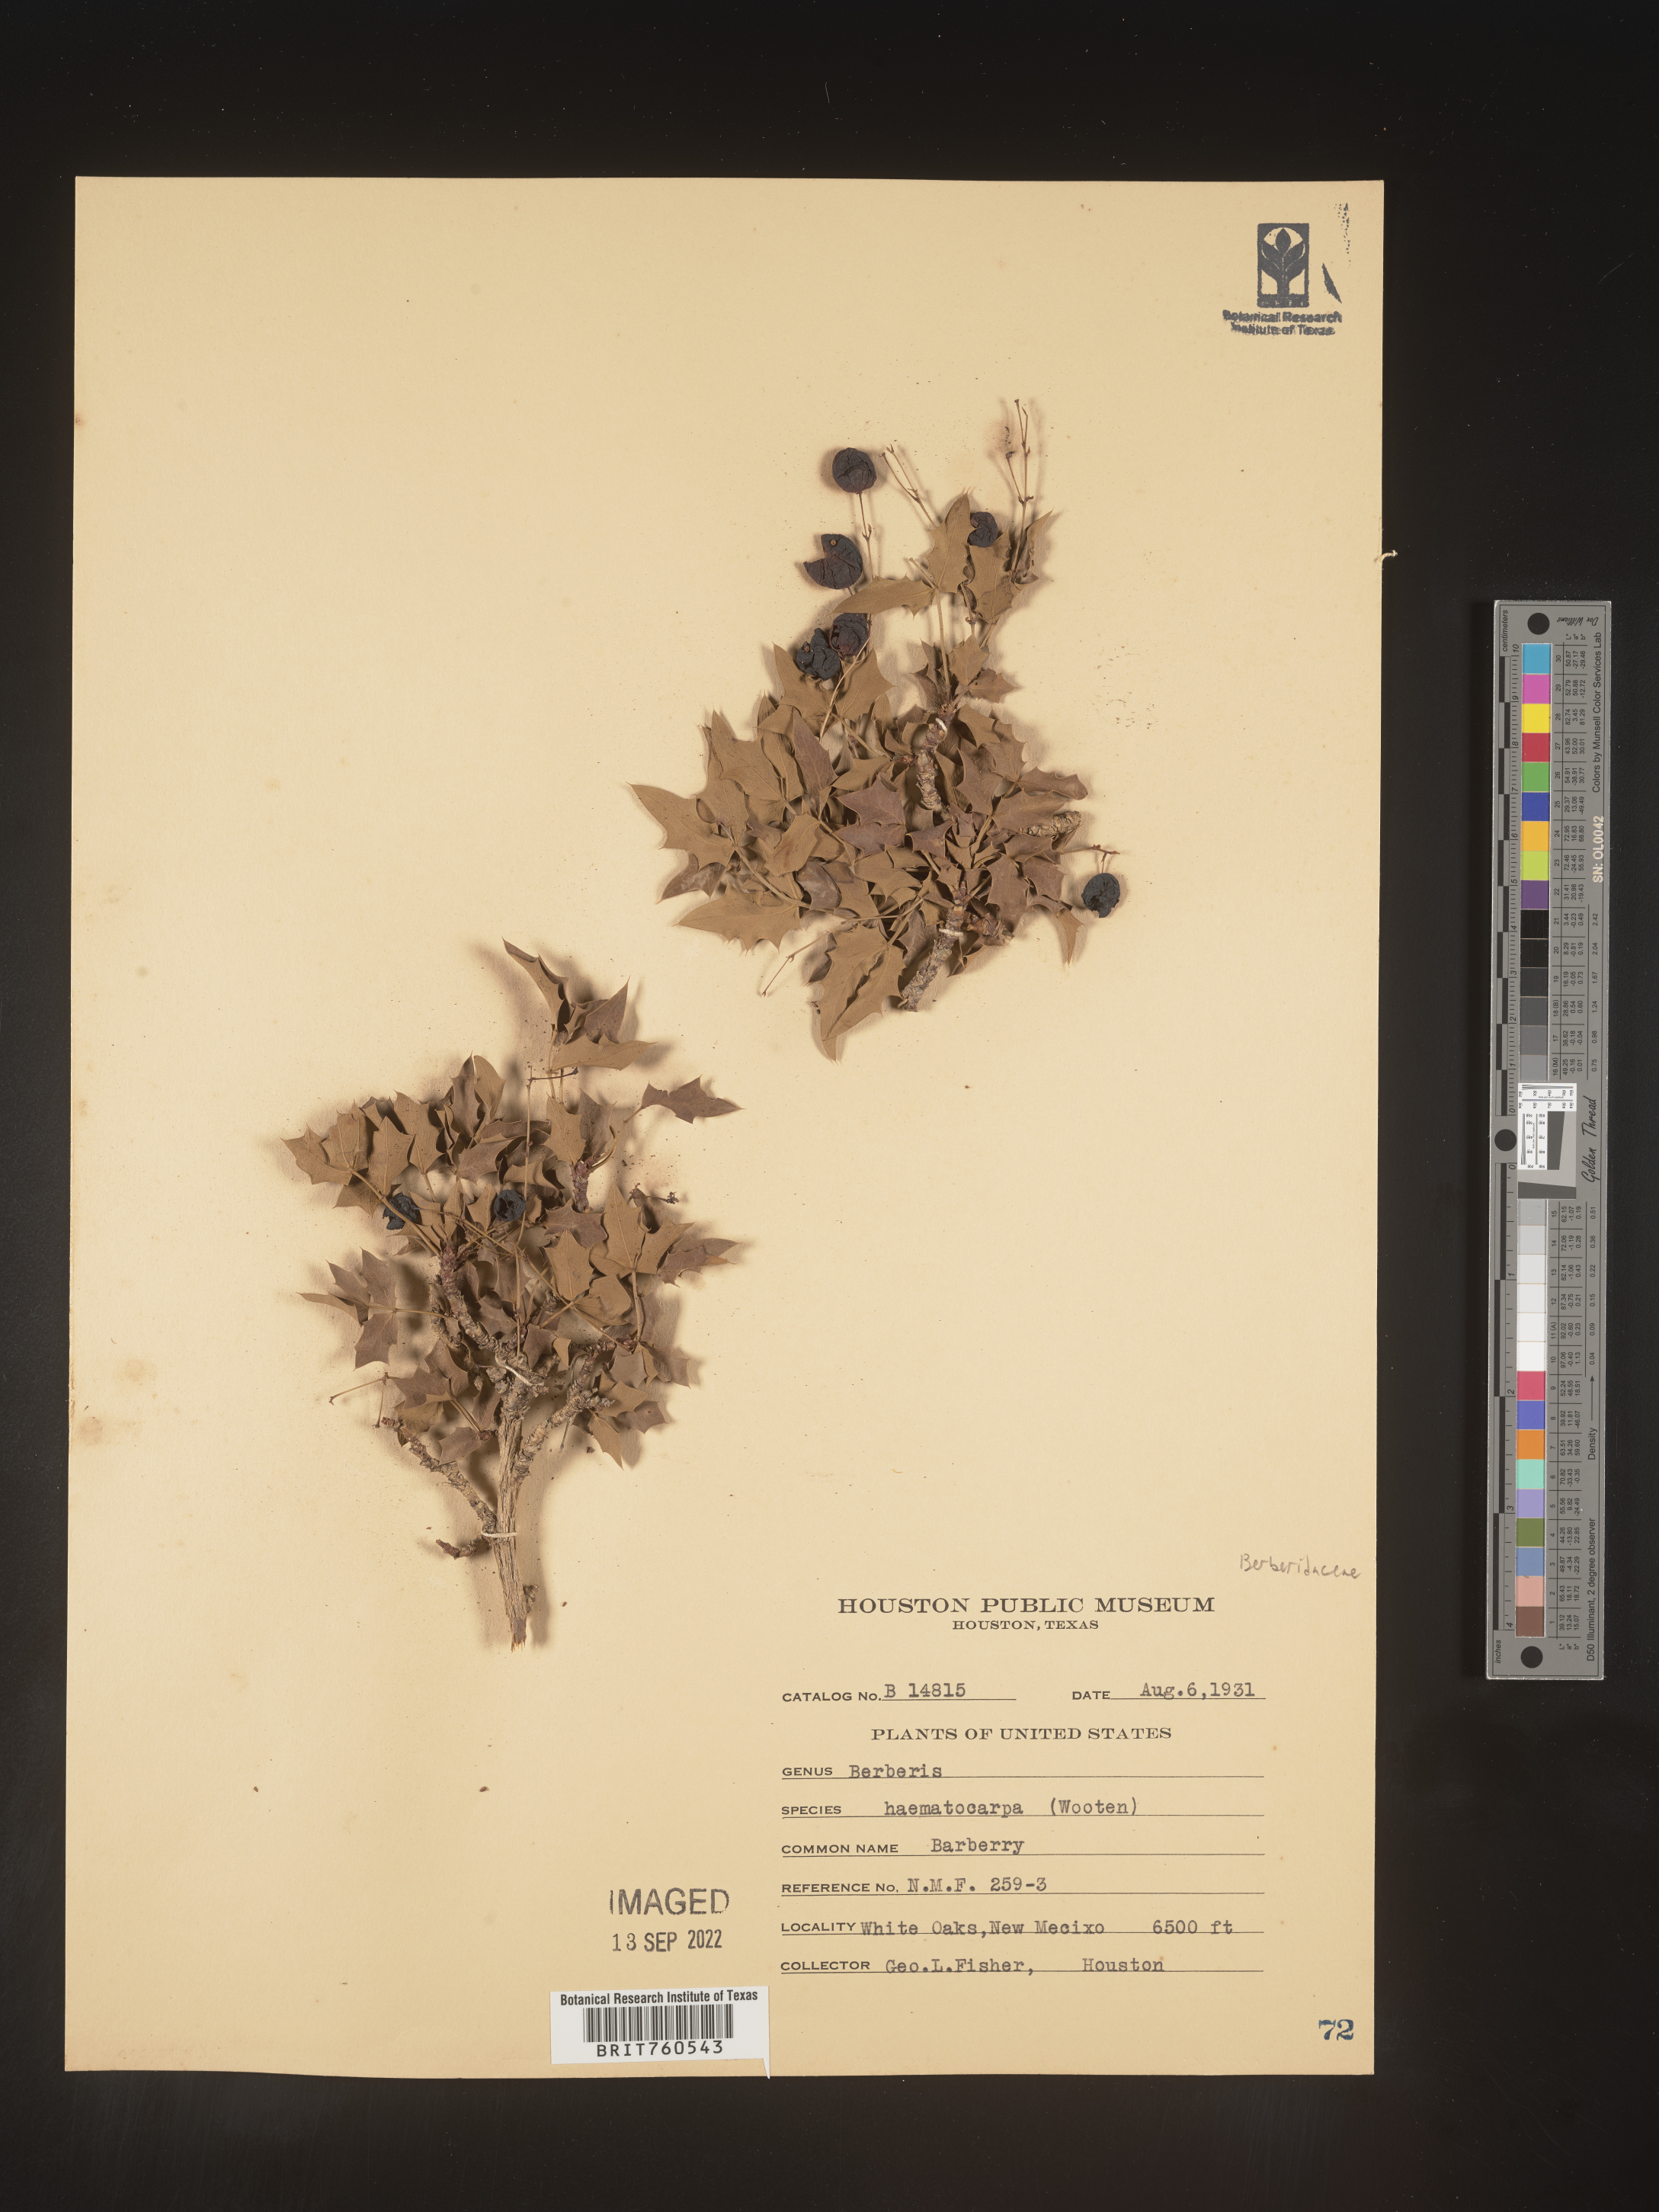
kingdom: Plantae
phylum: Tracheophyta
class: Magnoliopsida
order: Ranunculales
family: Berberidaceae
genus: Berberis
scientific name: Berberis
